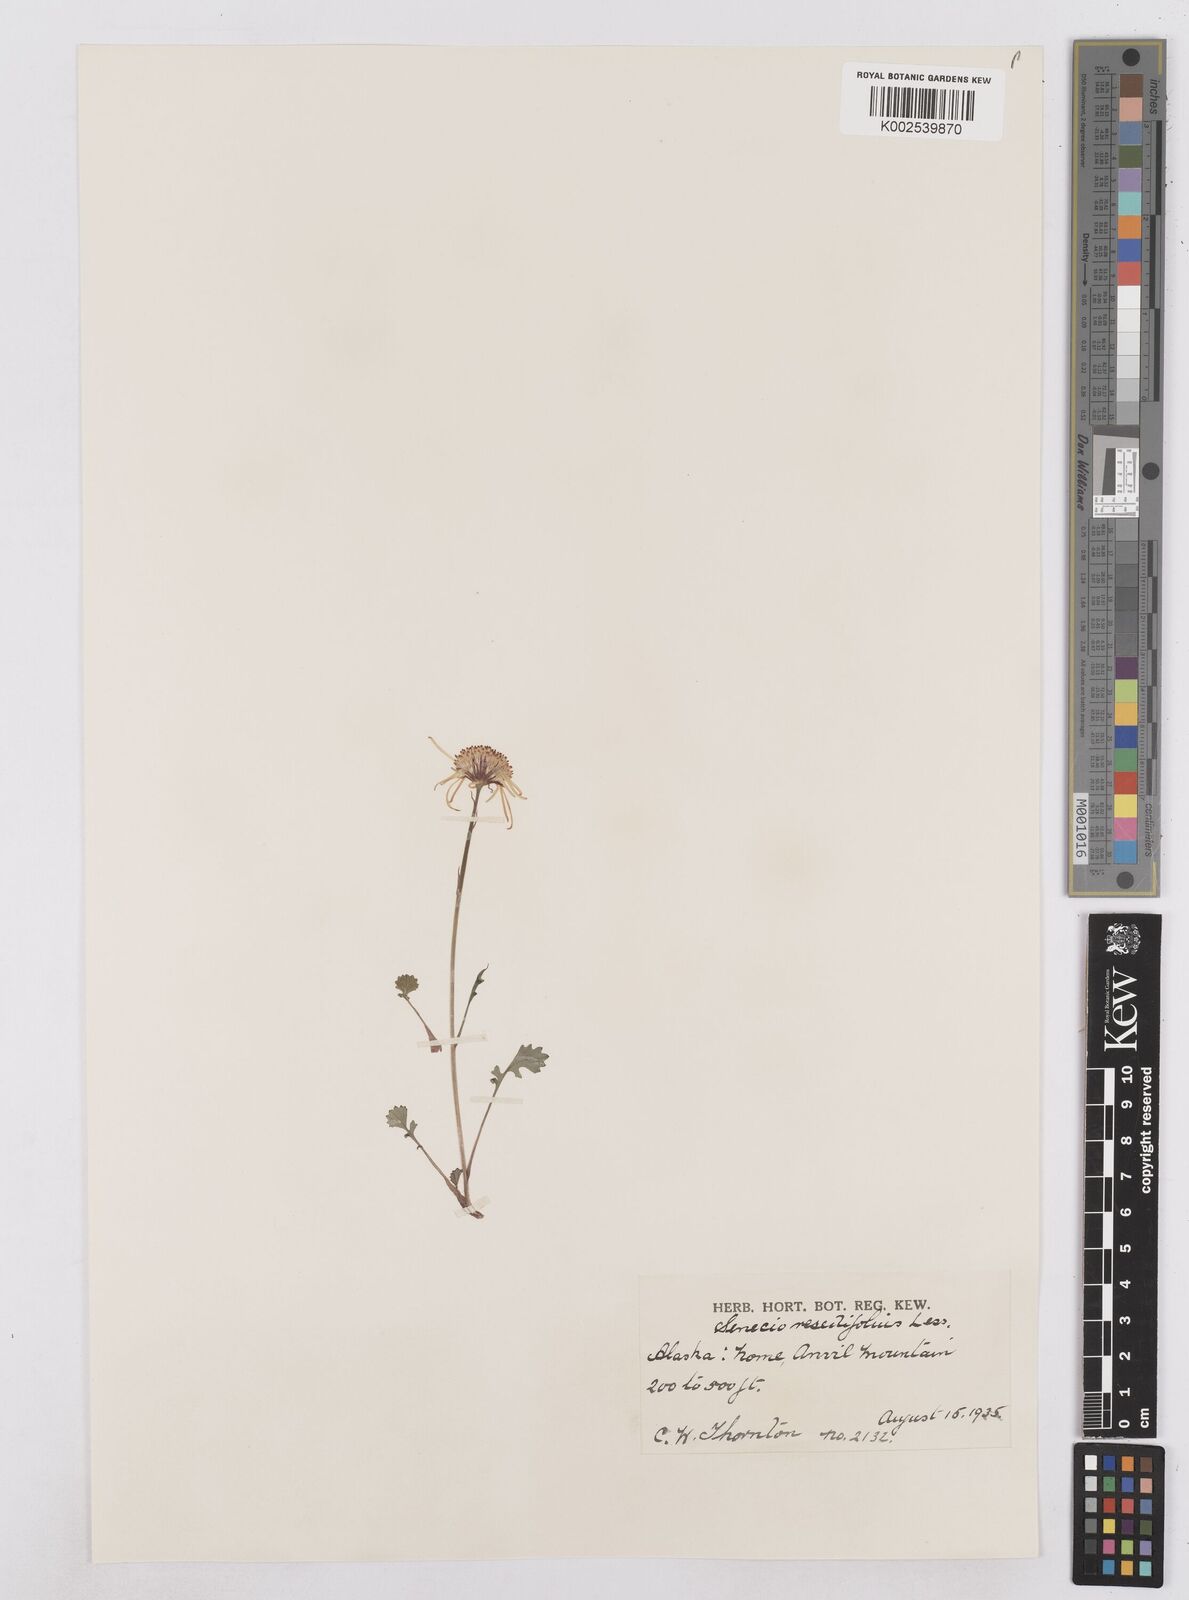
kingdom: Plantae
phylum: Tracheophyta
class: Magnoliopsida
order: Asterales
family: Asteraceae
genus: Packera
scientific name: Packera cymbalaria
